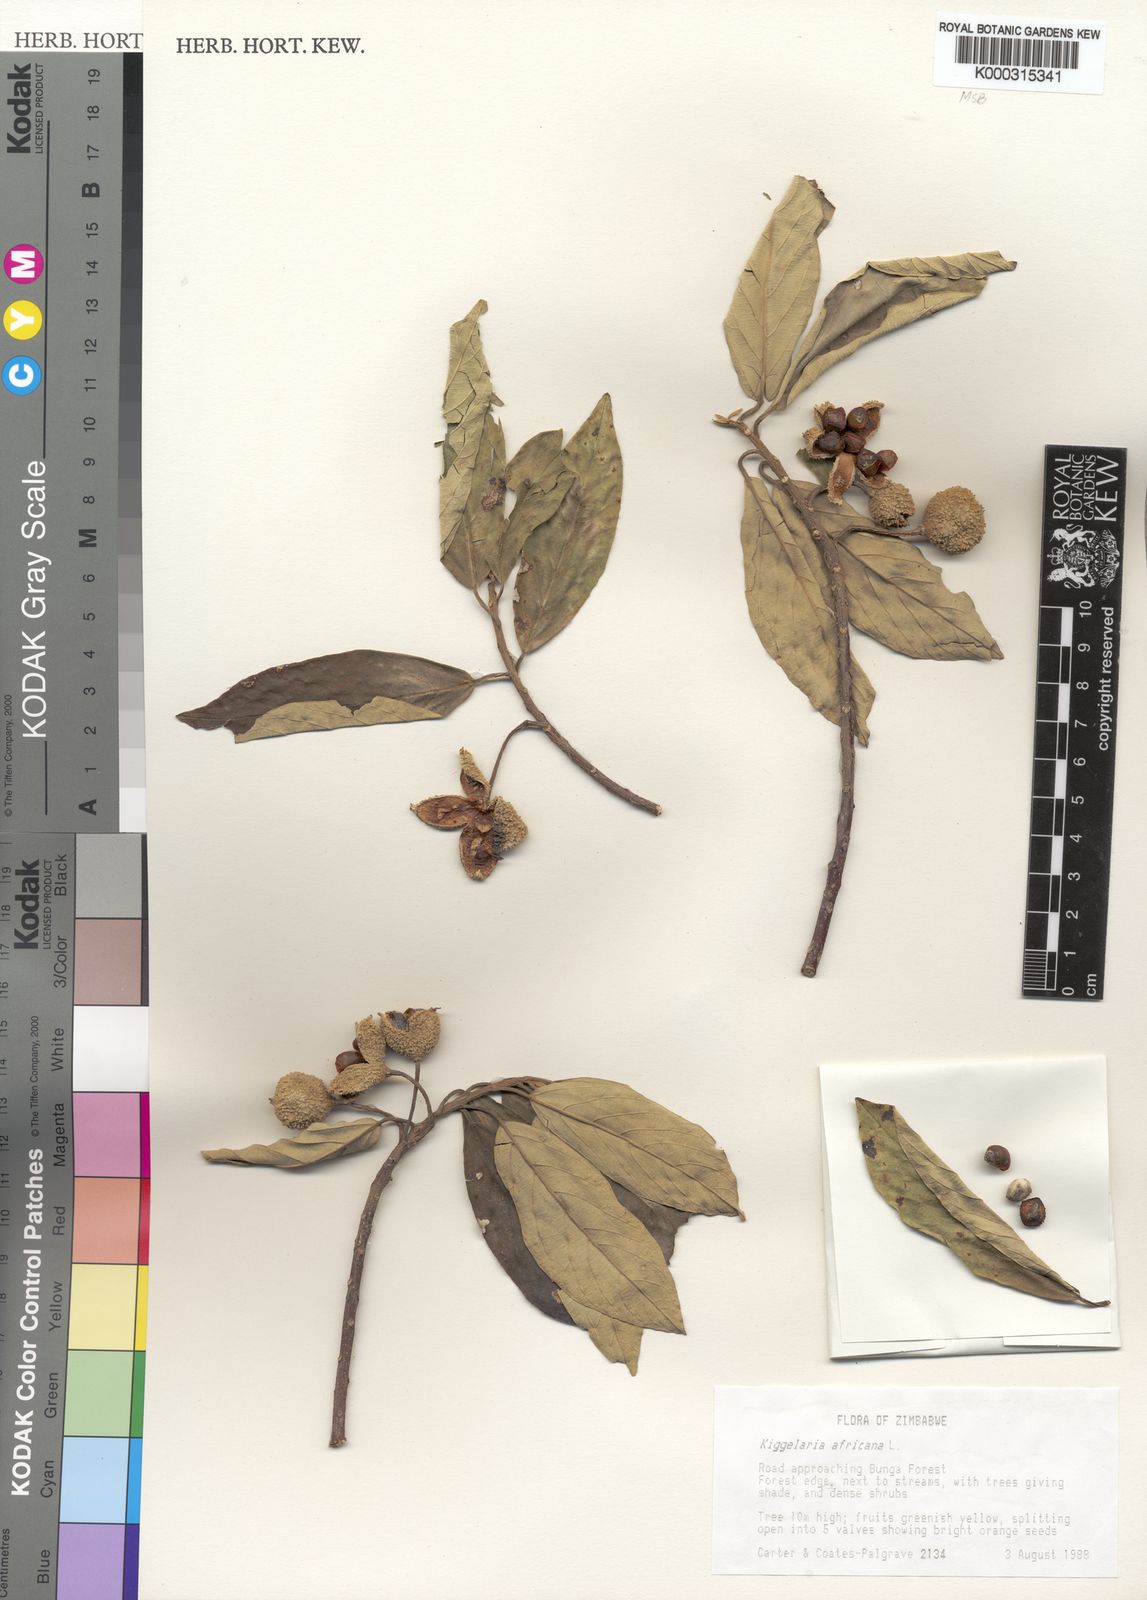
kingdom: Plantae
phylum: Tracheophyta
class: Magnoliopsida
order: Malpighiales
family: Achariaceae
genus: Kiggelaria
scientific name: Kiggelaria africana
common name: Wild peach
